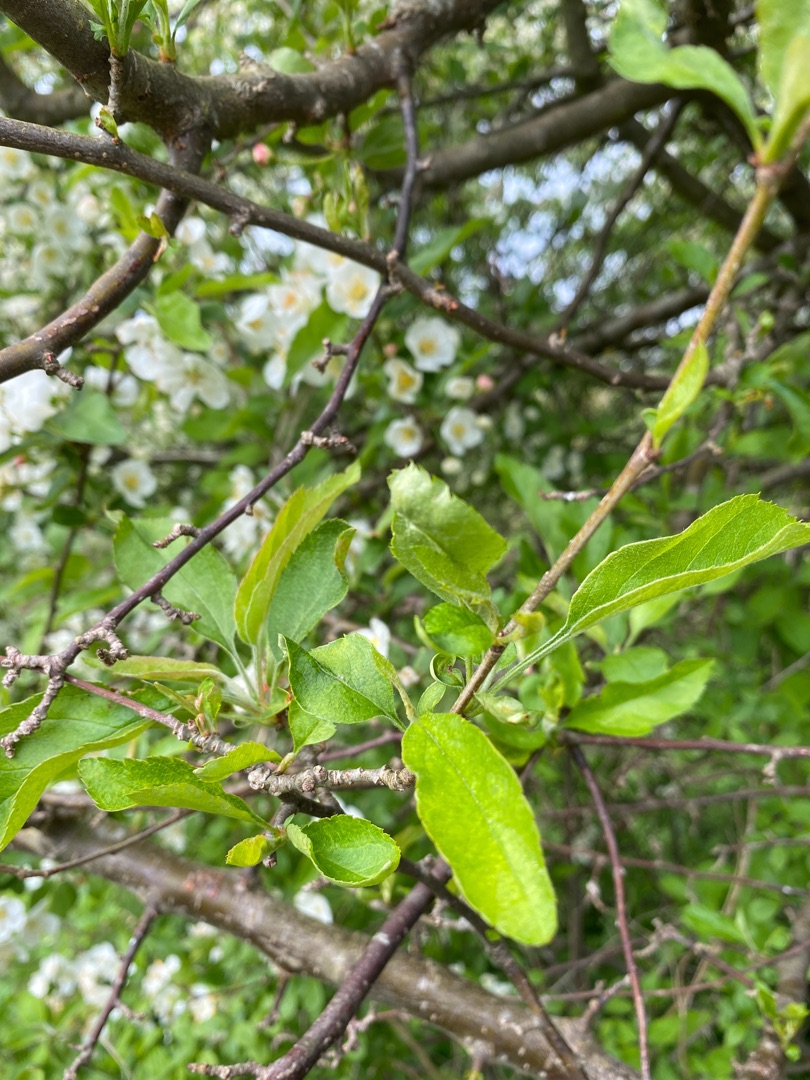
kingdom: Plantae
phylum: Tracheophyta
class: Magnoliopsida
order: Rosales
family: Rosaceae
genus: Malus
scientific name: Malus baccata
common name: Bær-æble
